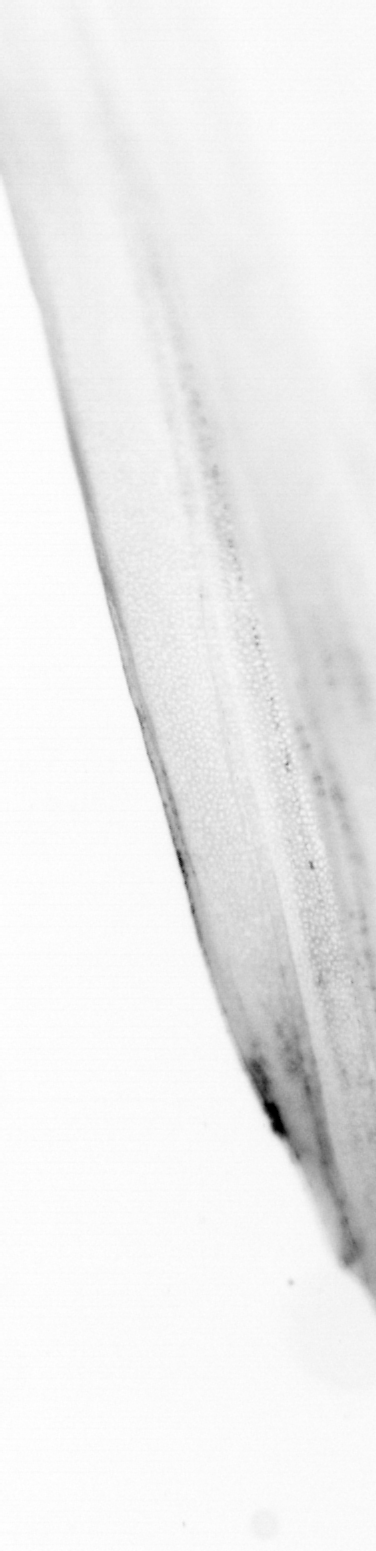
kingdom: Animalia
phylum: Chordata
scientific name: Chordata
